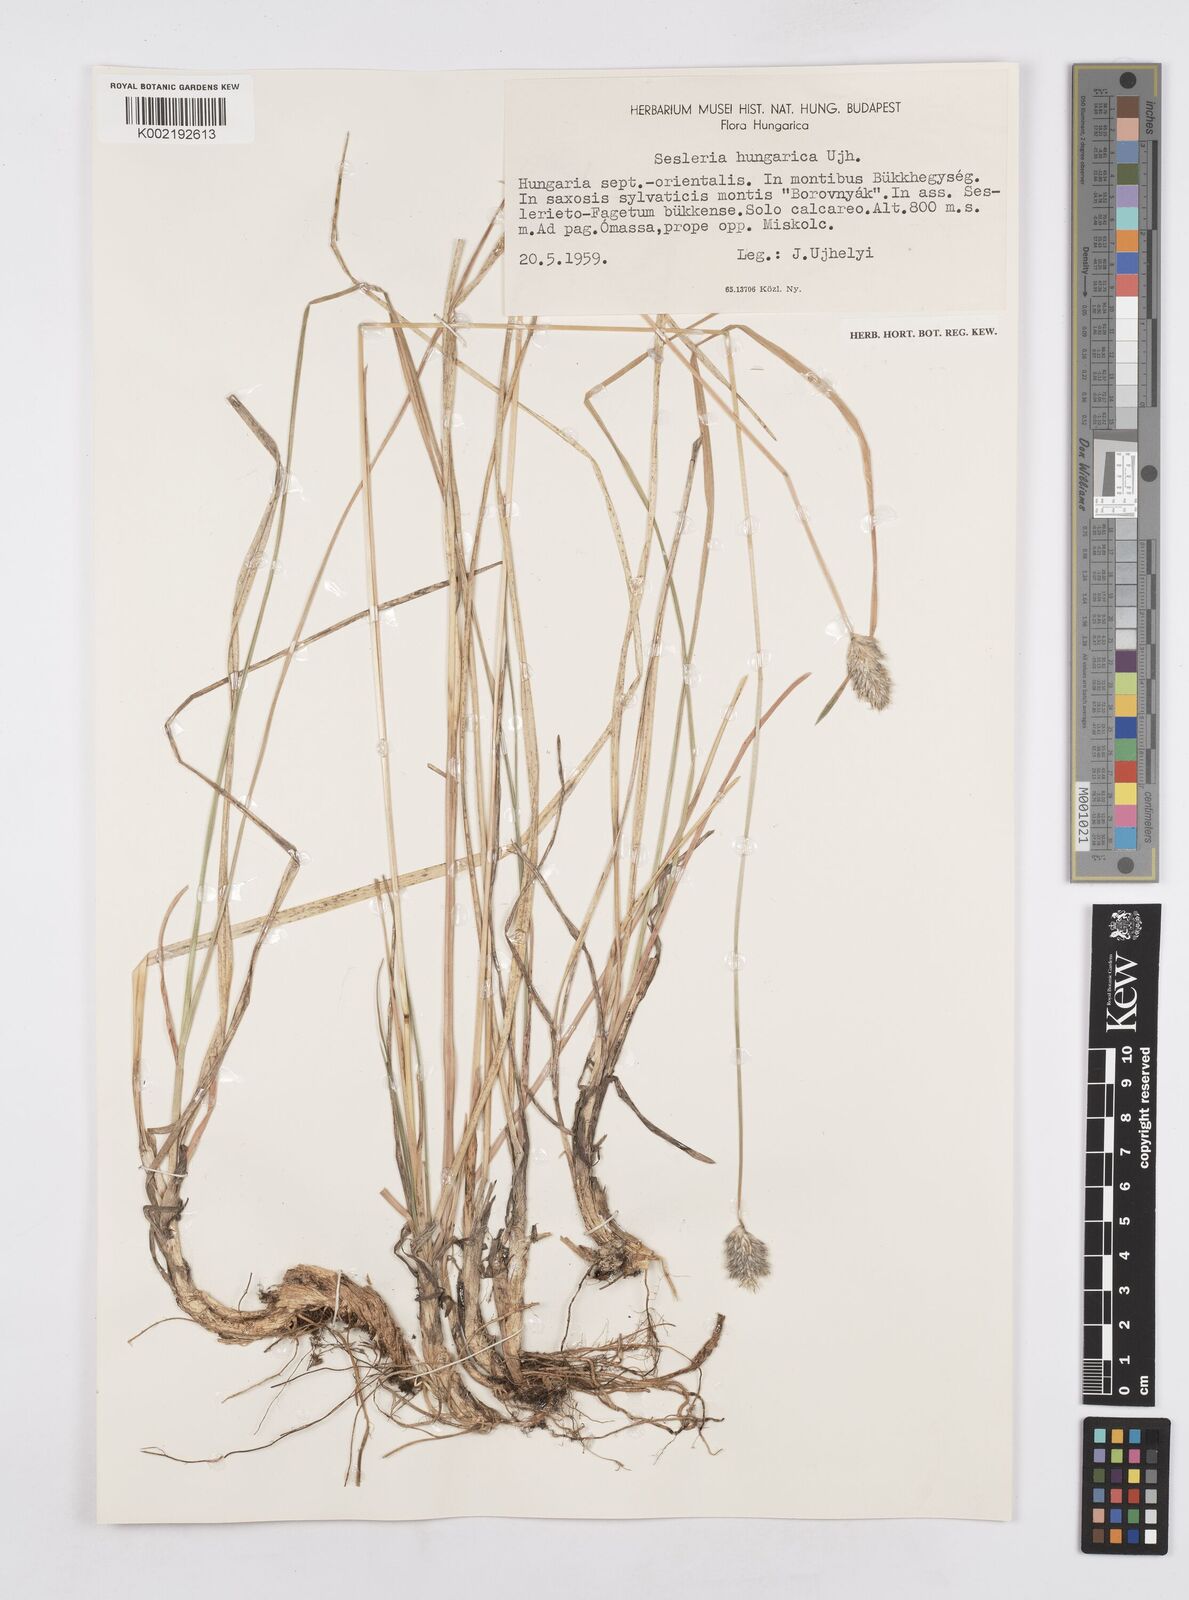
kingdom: Plantae
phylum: Tracheophyta
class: Liliopsida
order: Poales
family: Poaceae
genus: Sesleria
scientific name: Sesleria heufleriana
